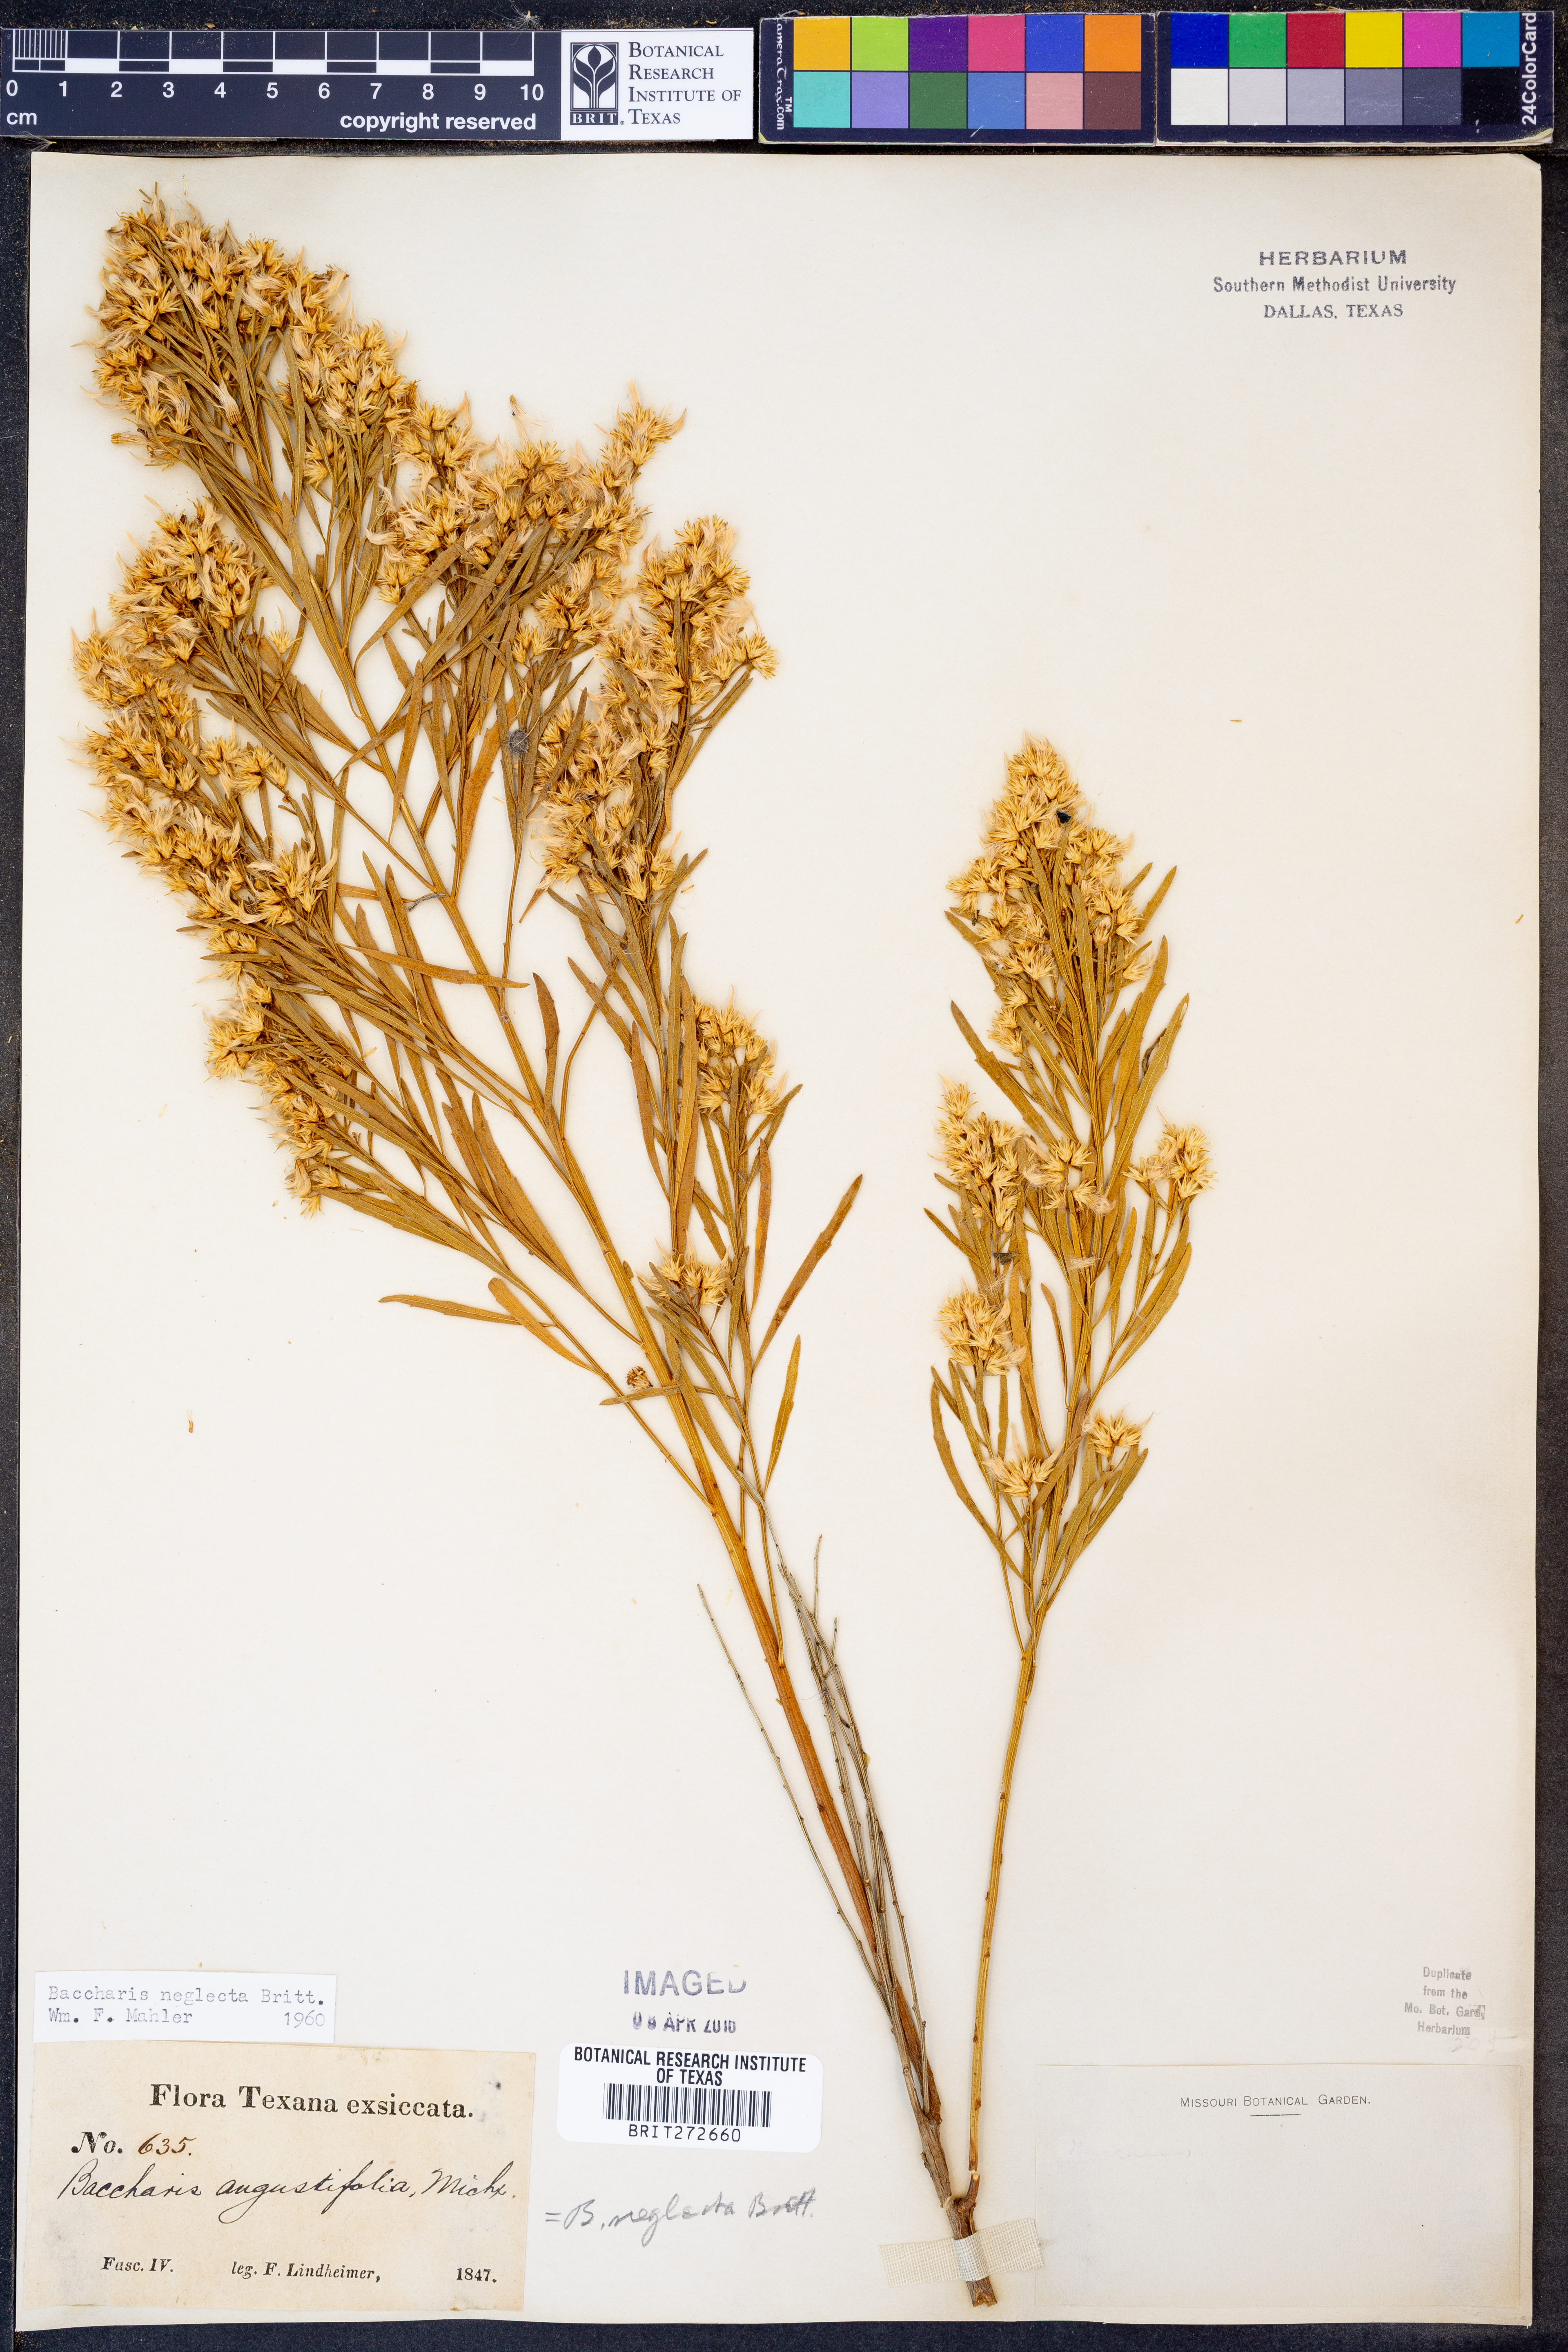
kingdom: Plantae
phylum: Tracheophyta
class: Magnoliopsida
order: Asterales
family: Asteraceae
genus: Baccharis
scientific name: Baccharis neglecta
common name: Roosevelt-weed
